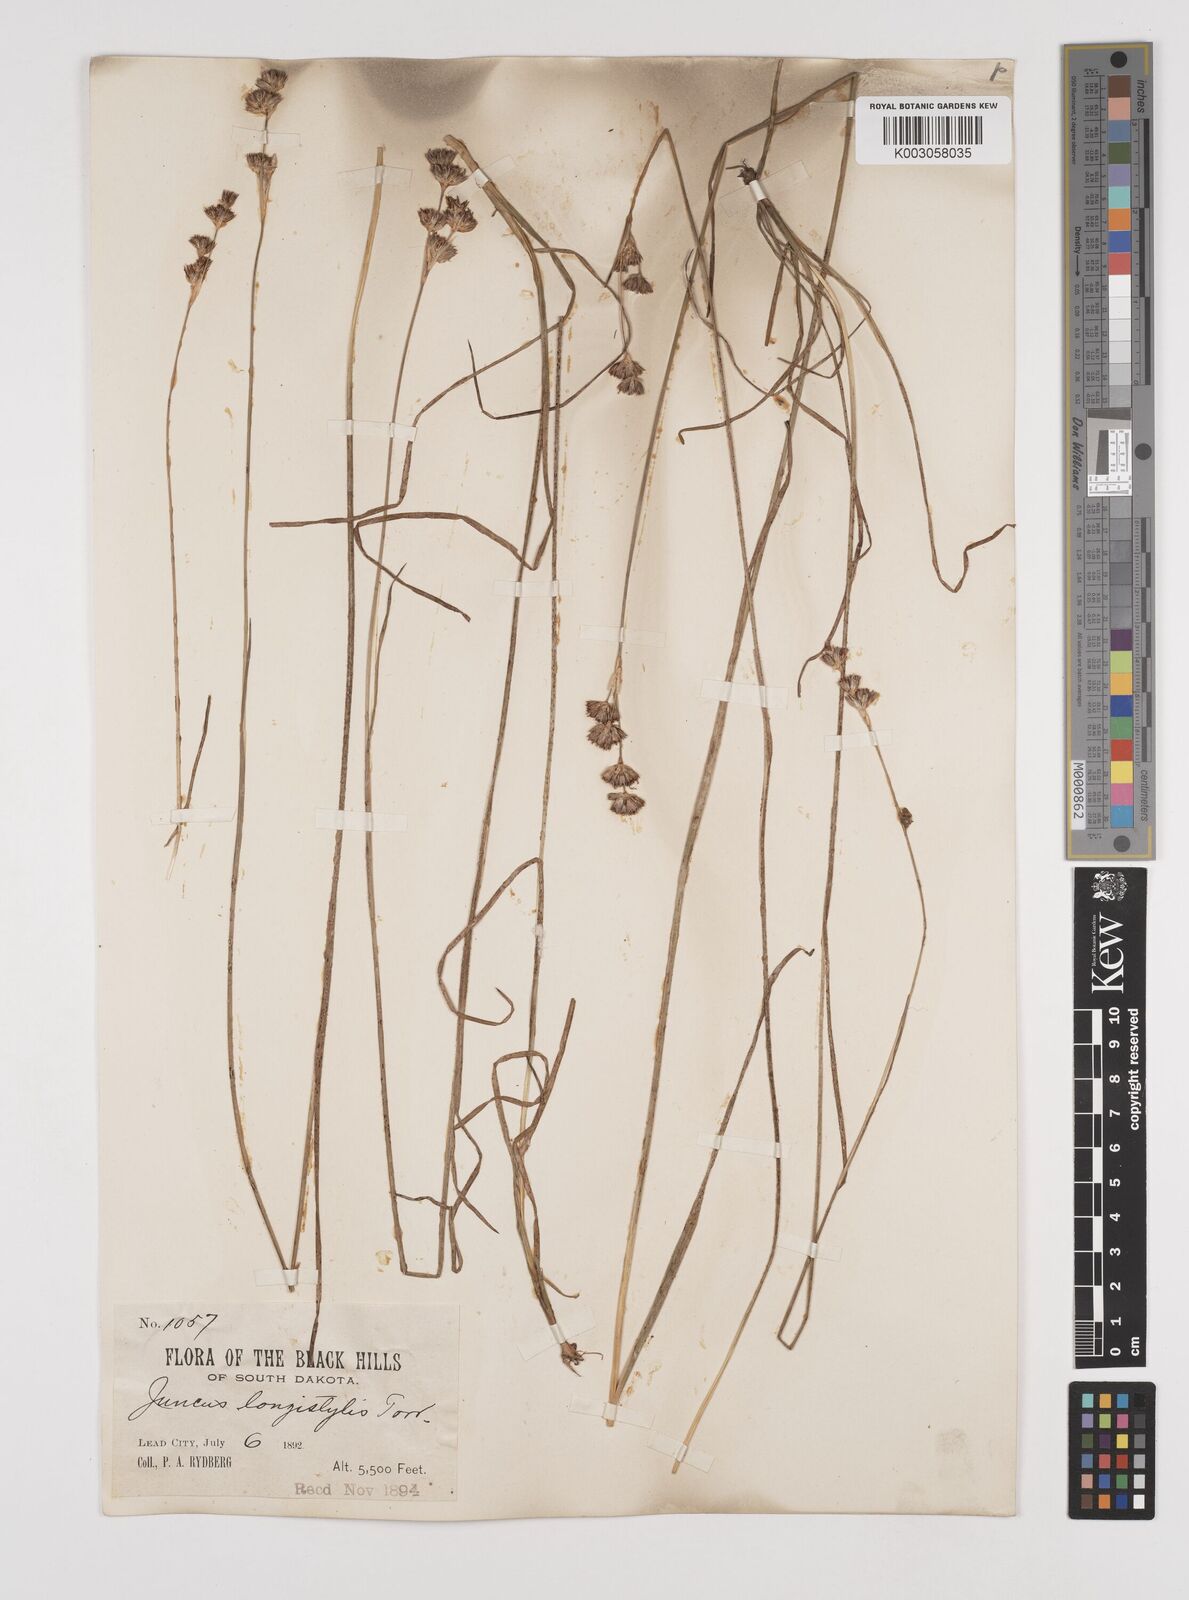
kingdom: Plantae
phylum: Tracheophyta
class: Liliopsida
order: Poales
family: Juncaceae
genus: Juncus
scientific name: Juncus longistylis
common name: Long-style rush
